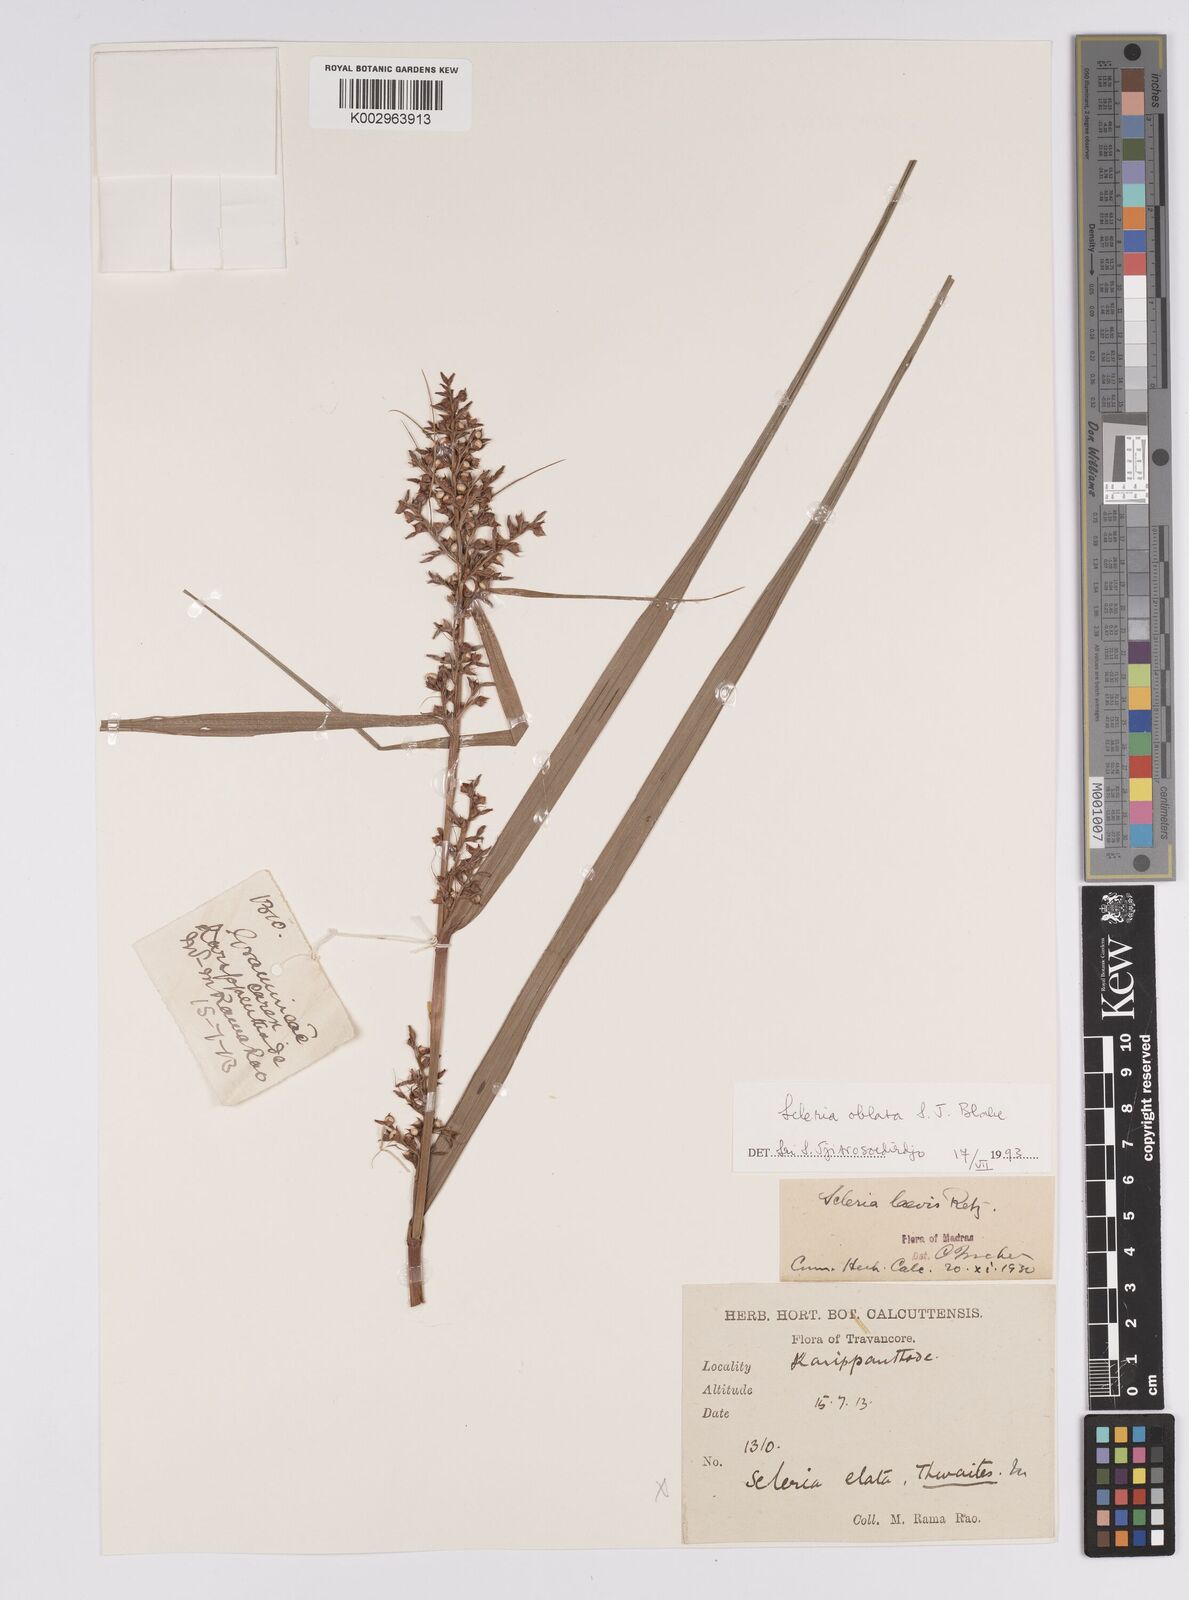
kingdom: Plantae
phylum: Tracheophyta
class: Liliopsida
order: Poales
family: Cyperaceae
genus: Scleria
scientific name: Scleria levis
